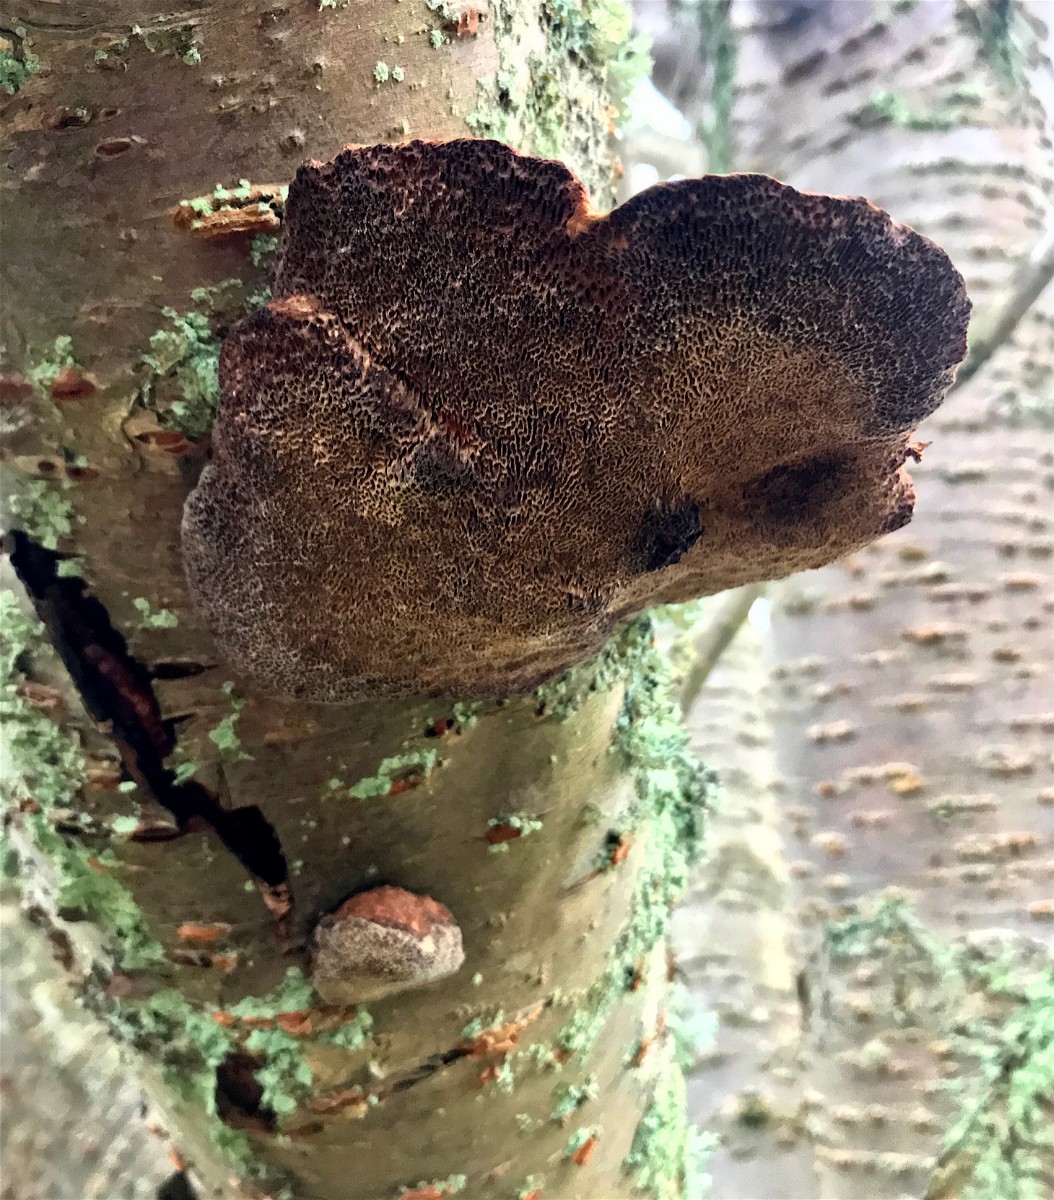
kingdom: Fungi
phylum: Basidiomycota
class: Agaricomycetes
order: Polyporales
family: Polyporaceae
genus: Daedaleopsis
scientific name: Daedaleopsis confragosa
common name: rødmende læderporesvamp
